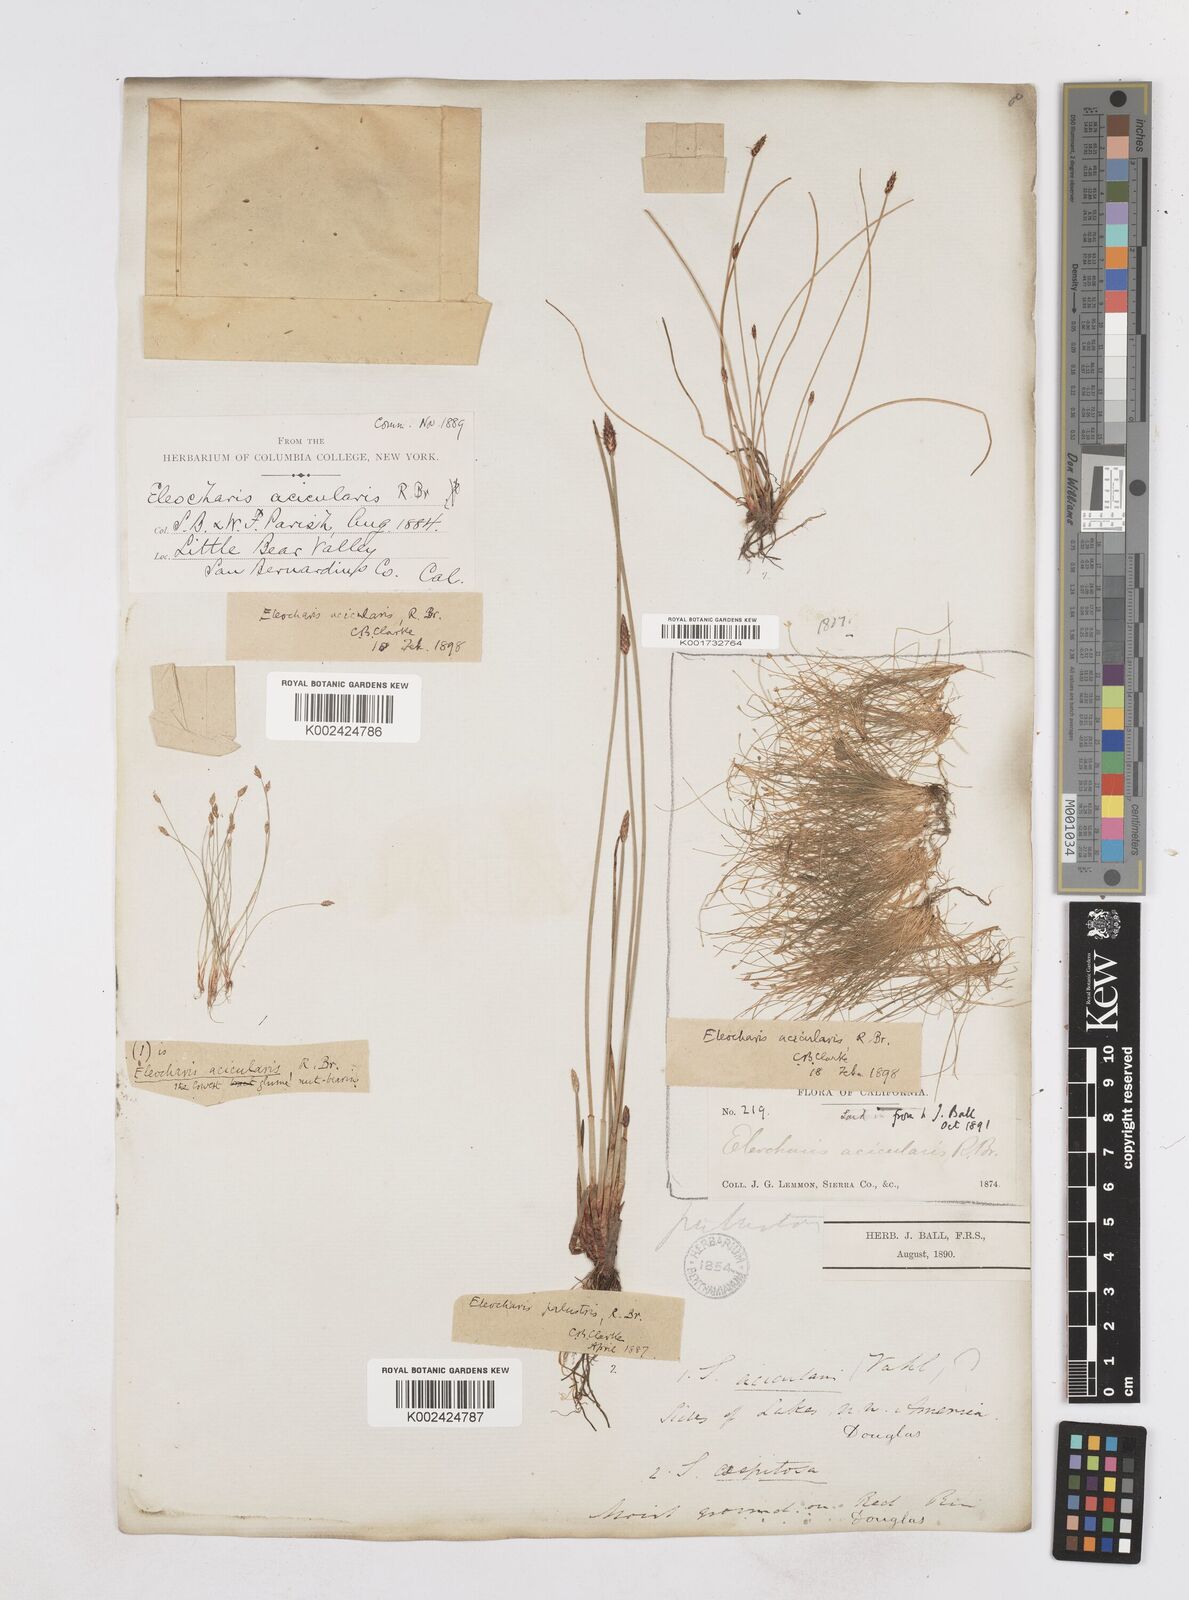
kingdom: Plantae
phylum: Tracheophyta
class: Liliopsida
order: Poales
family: Cyperaceae
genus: Eleocharis
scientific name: Eleocharis acicularis
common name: Needle spike-rush
